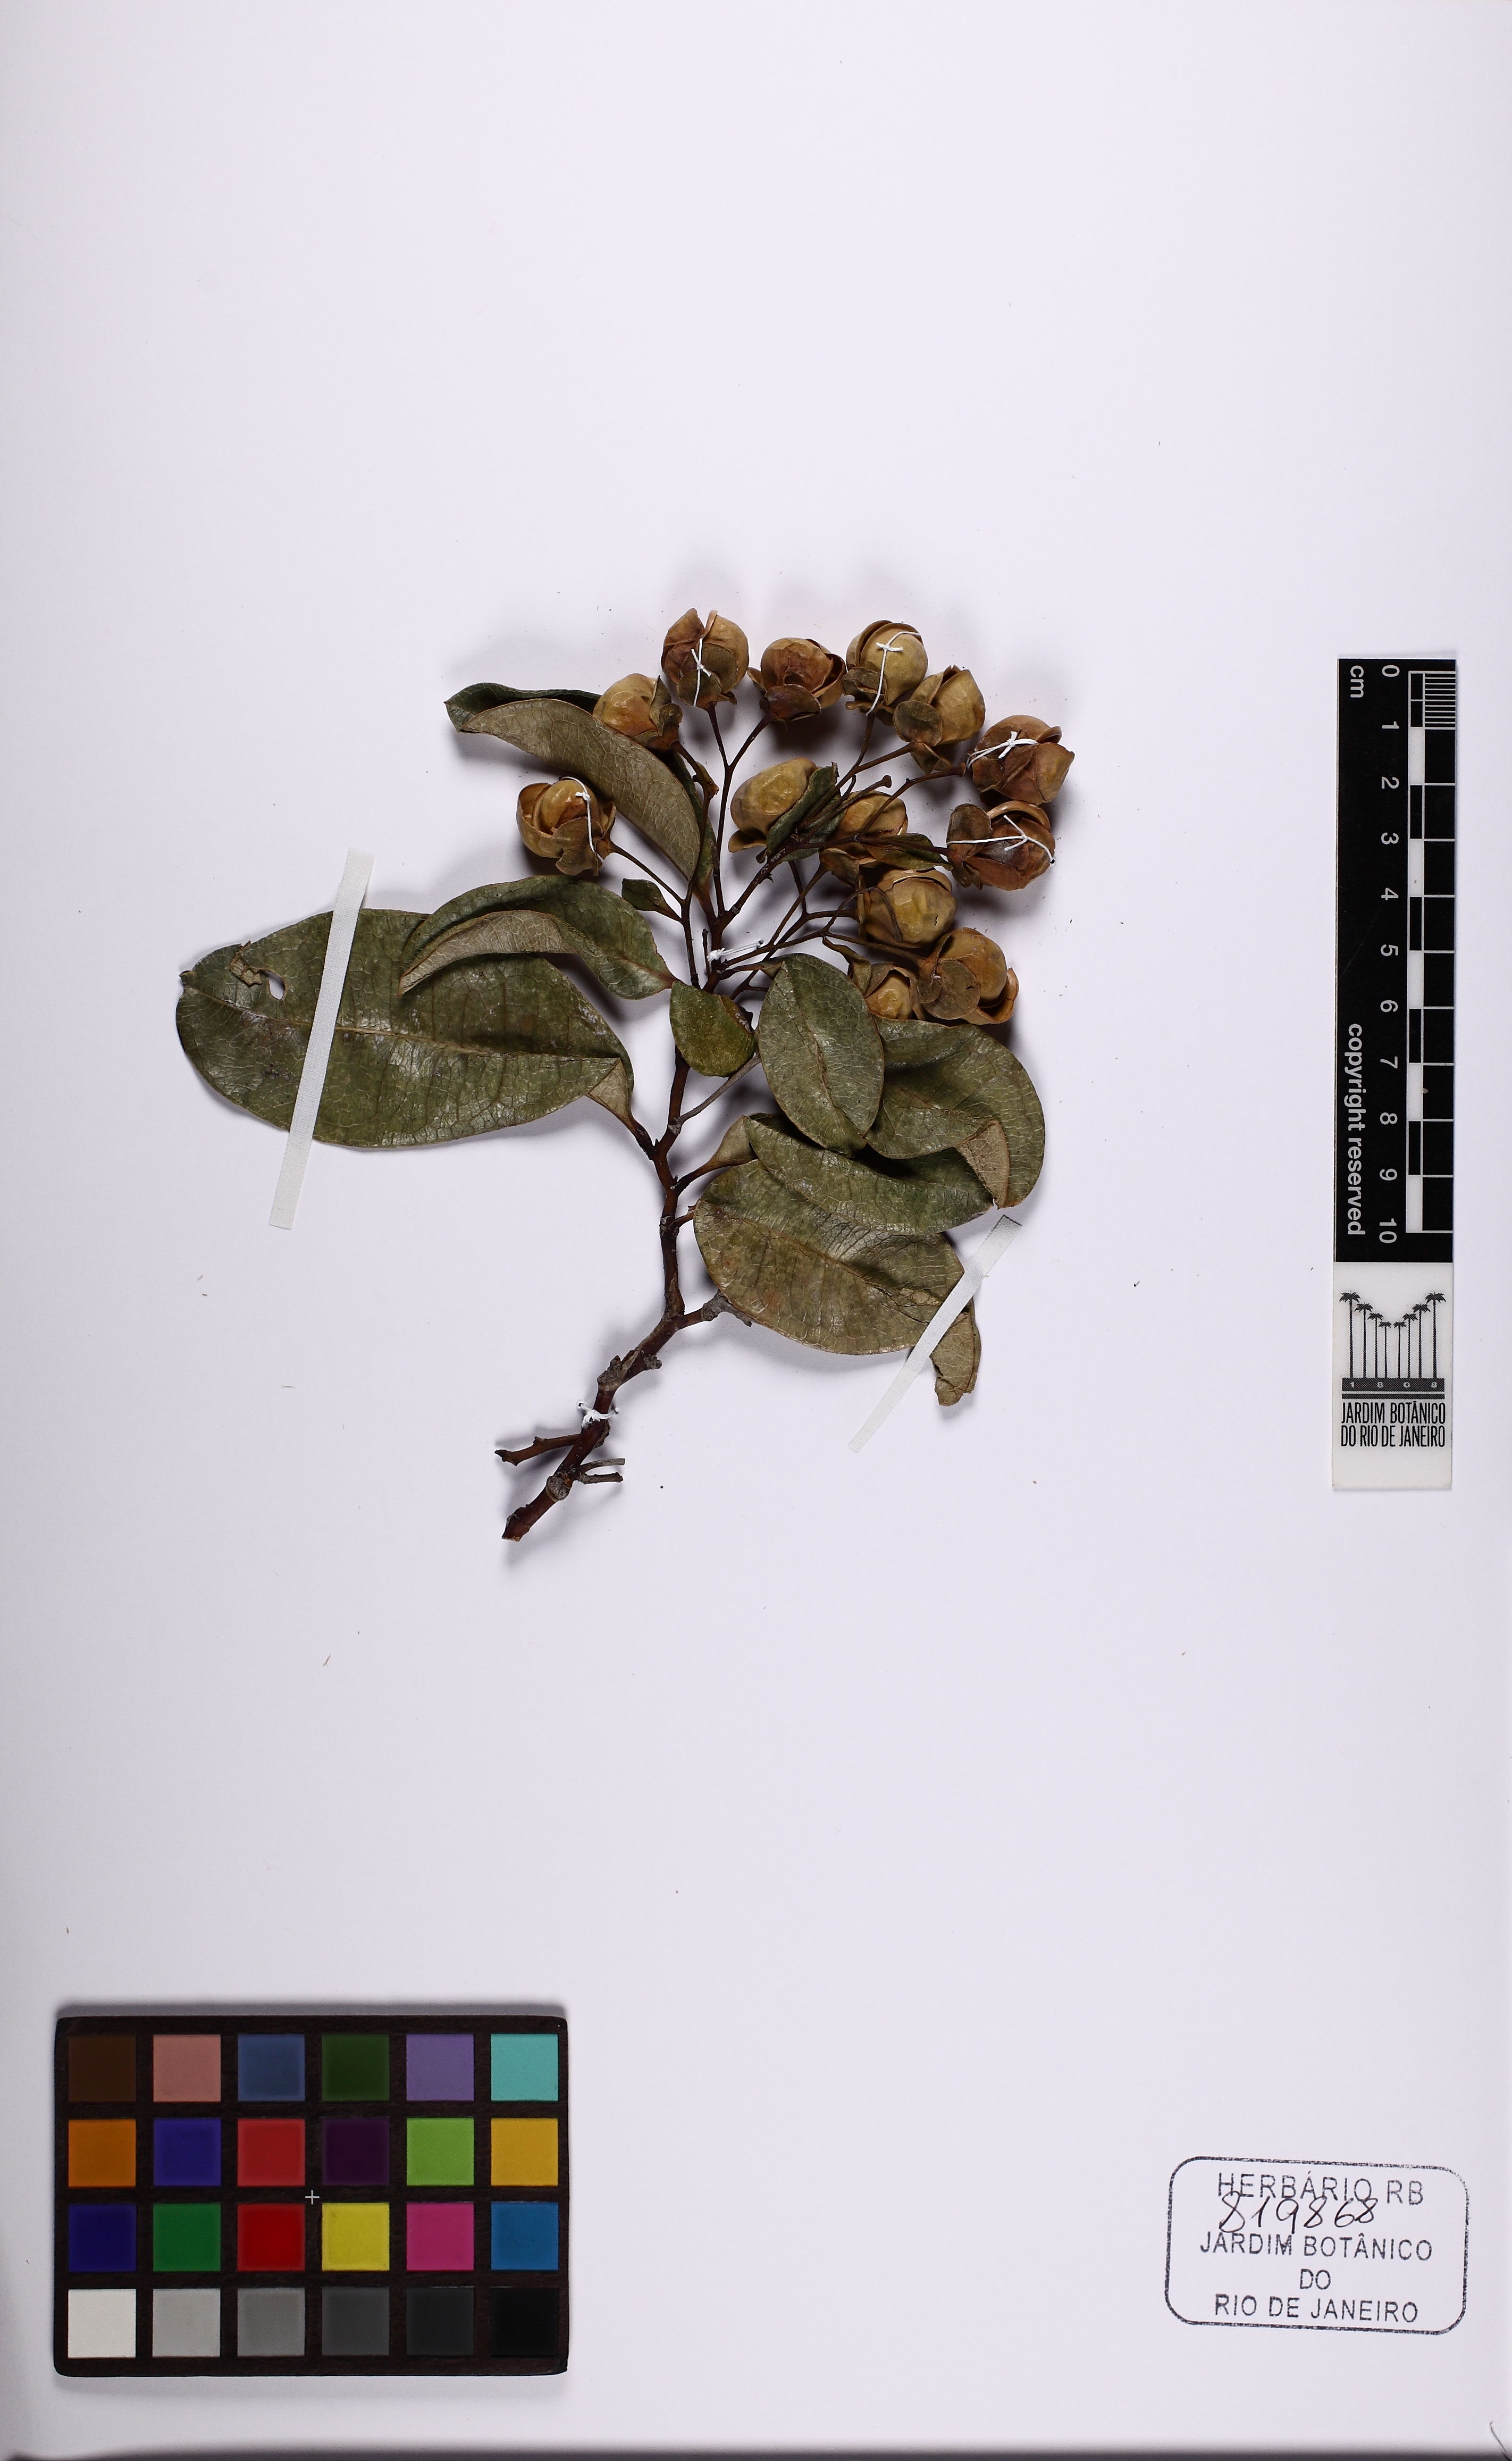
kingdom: Plantae
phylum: Tracheophyta
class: Magnoliopsida
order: Dilleniales
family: Dilleniaceae
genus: Davilla
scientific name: Davilla flexuosa
